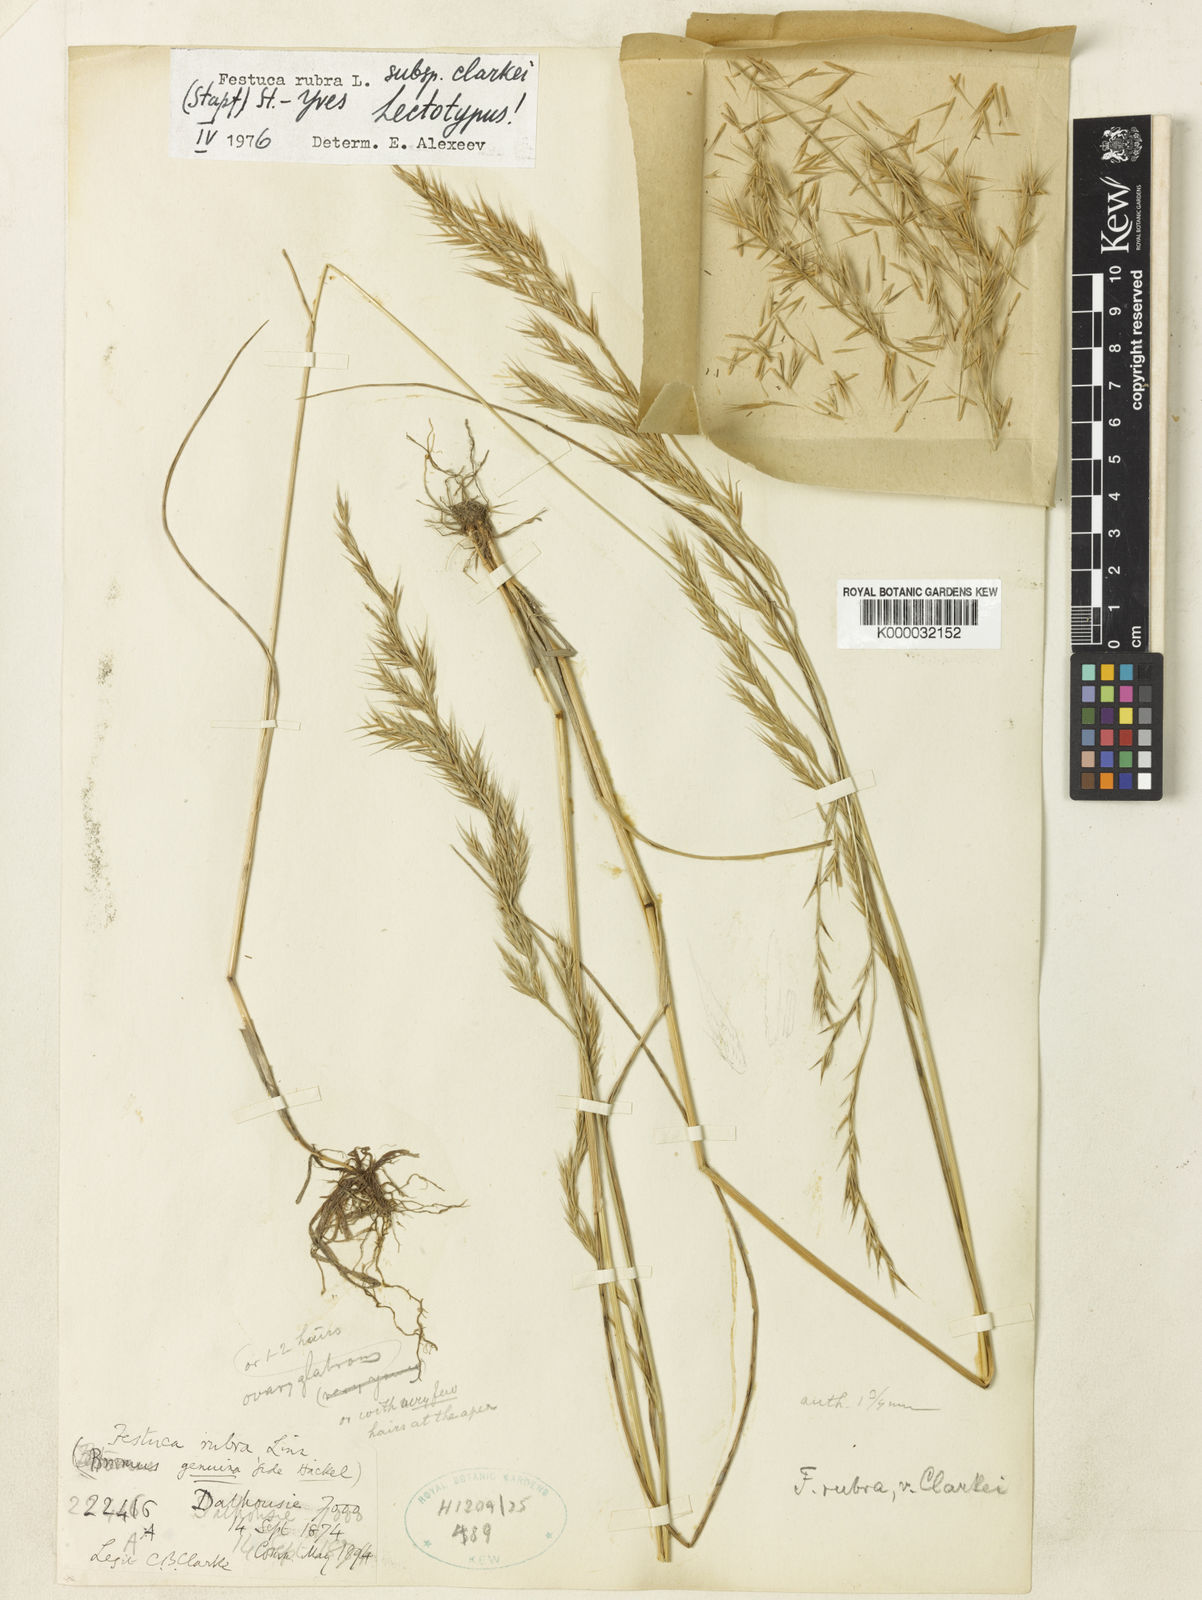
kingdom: Plantae
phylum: Tracheophyta
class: Liliopsida
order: Poales
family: Poaceae
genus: Festuca
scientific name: Festuca rubra
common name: Red fescue
